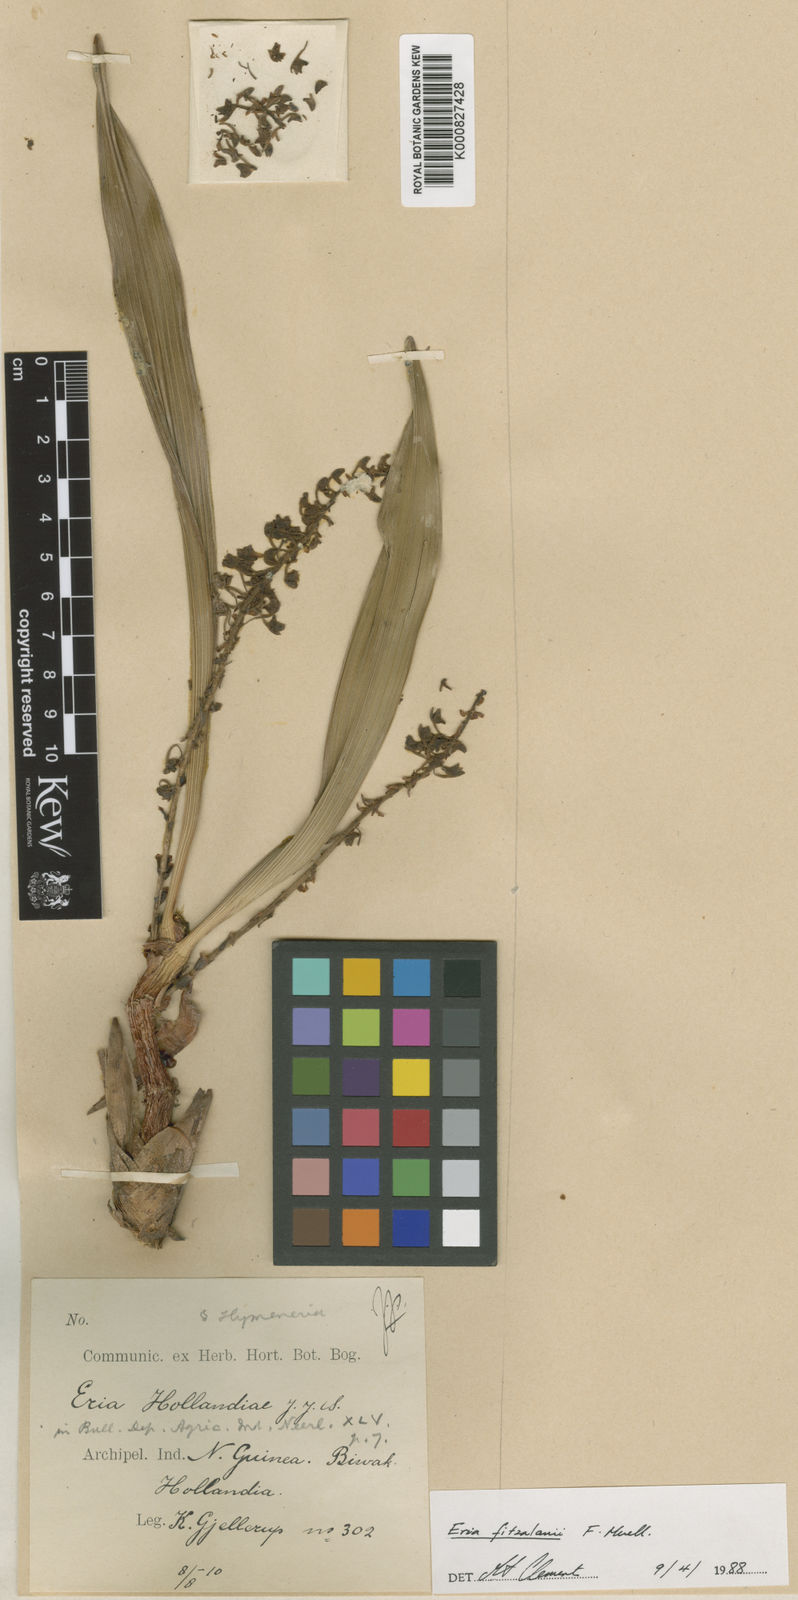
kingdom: Plantae
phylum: Tracheophyta
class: Liliopsida
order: Asparagales
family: Orchidaceae
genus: Mycaranthes
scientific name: Mycaranthes oblitterata
